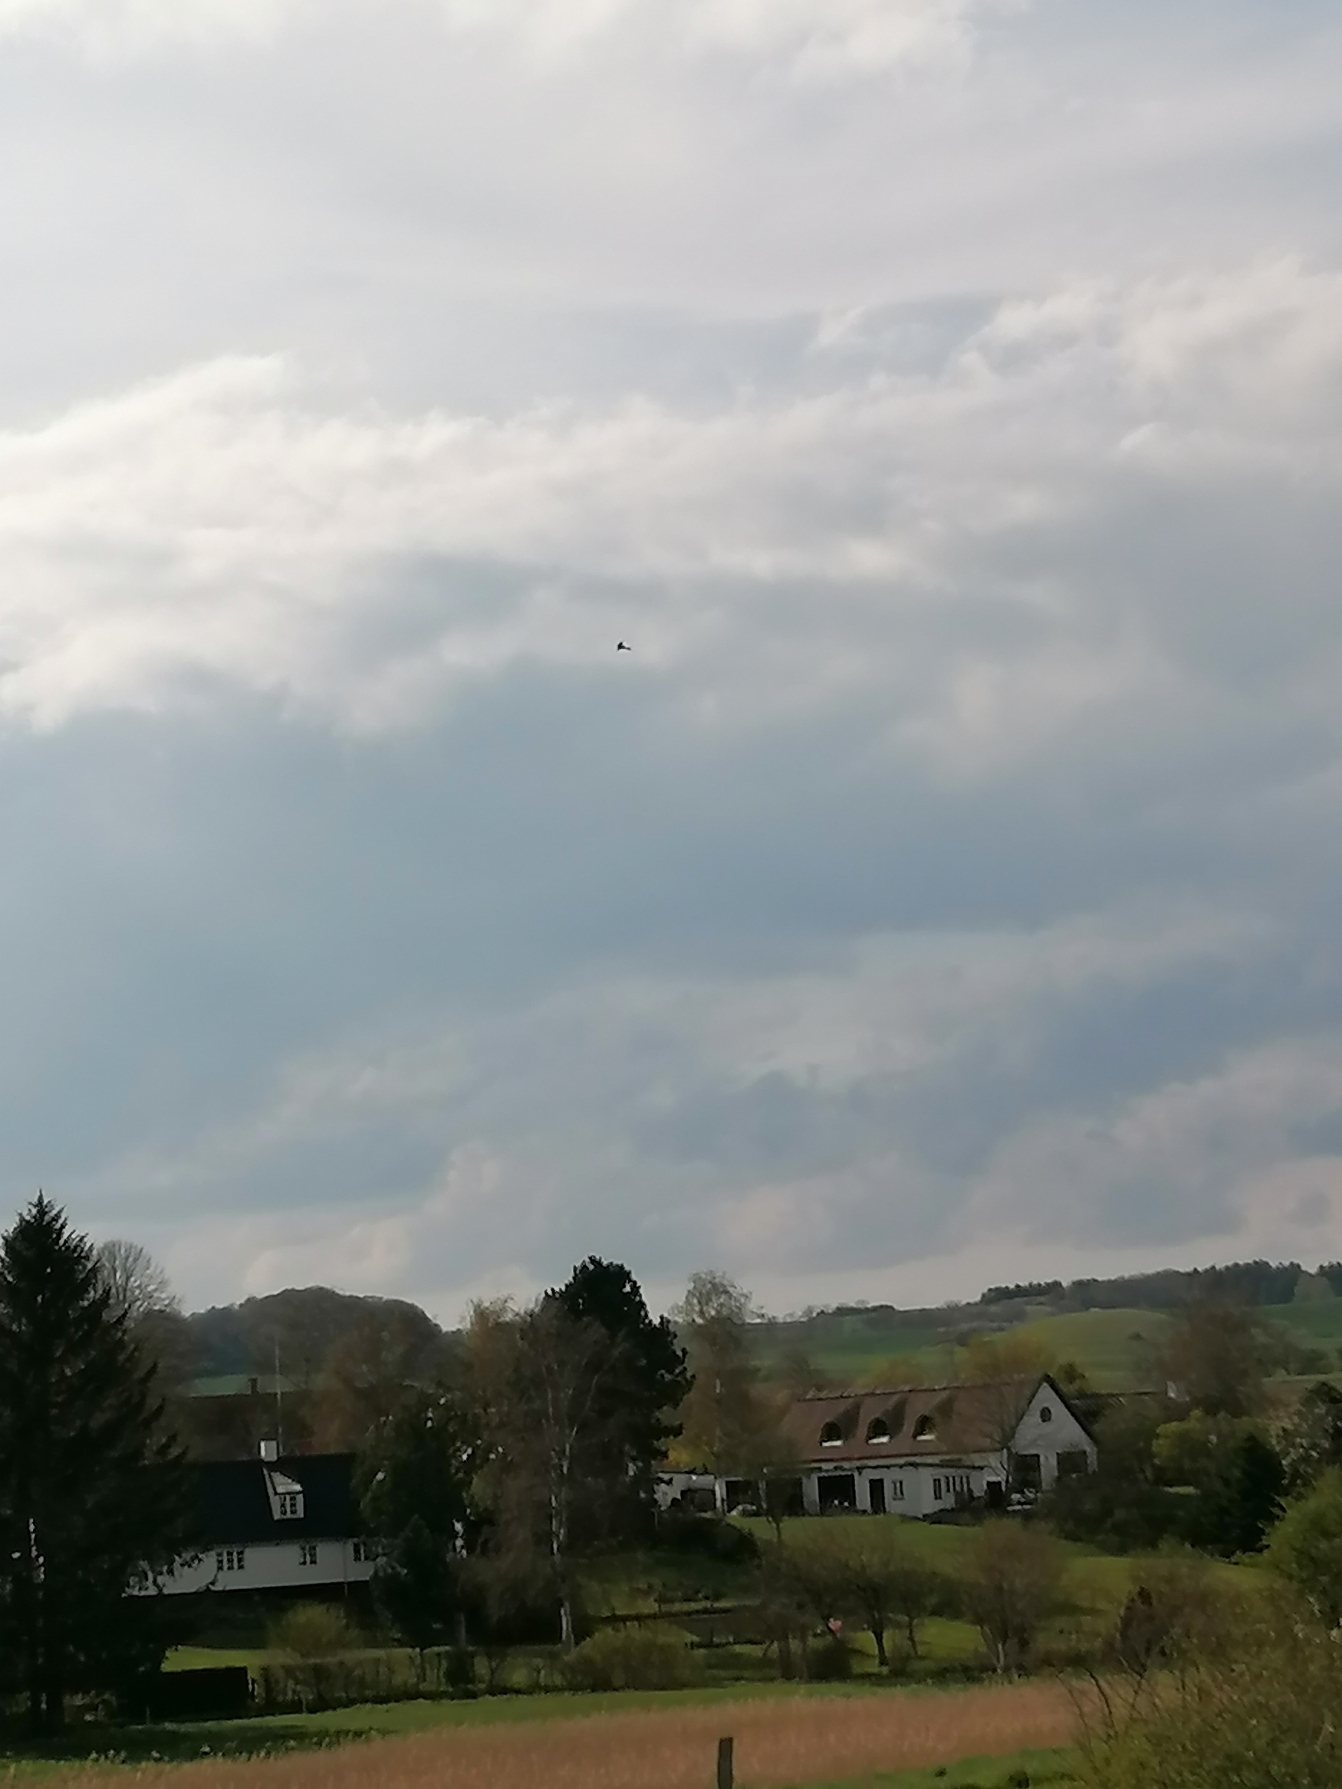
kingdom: Animalia
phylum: Chordata
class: Aves
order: Falconiformes
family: Falconidae
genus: Falco
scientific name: Falco tinnunculus
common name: Tårnfalk
